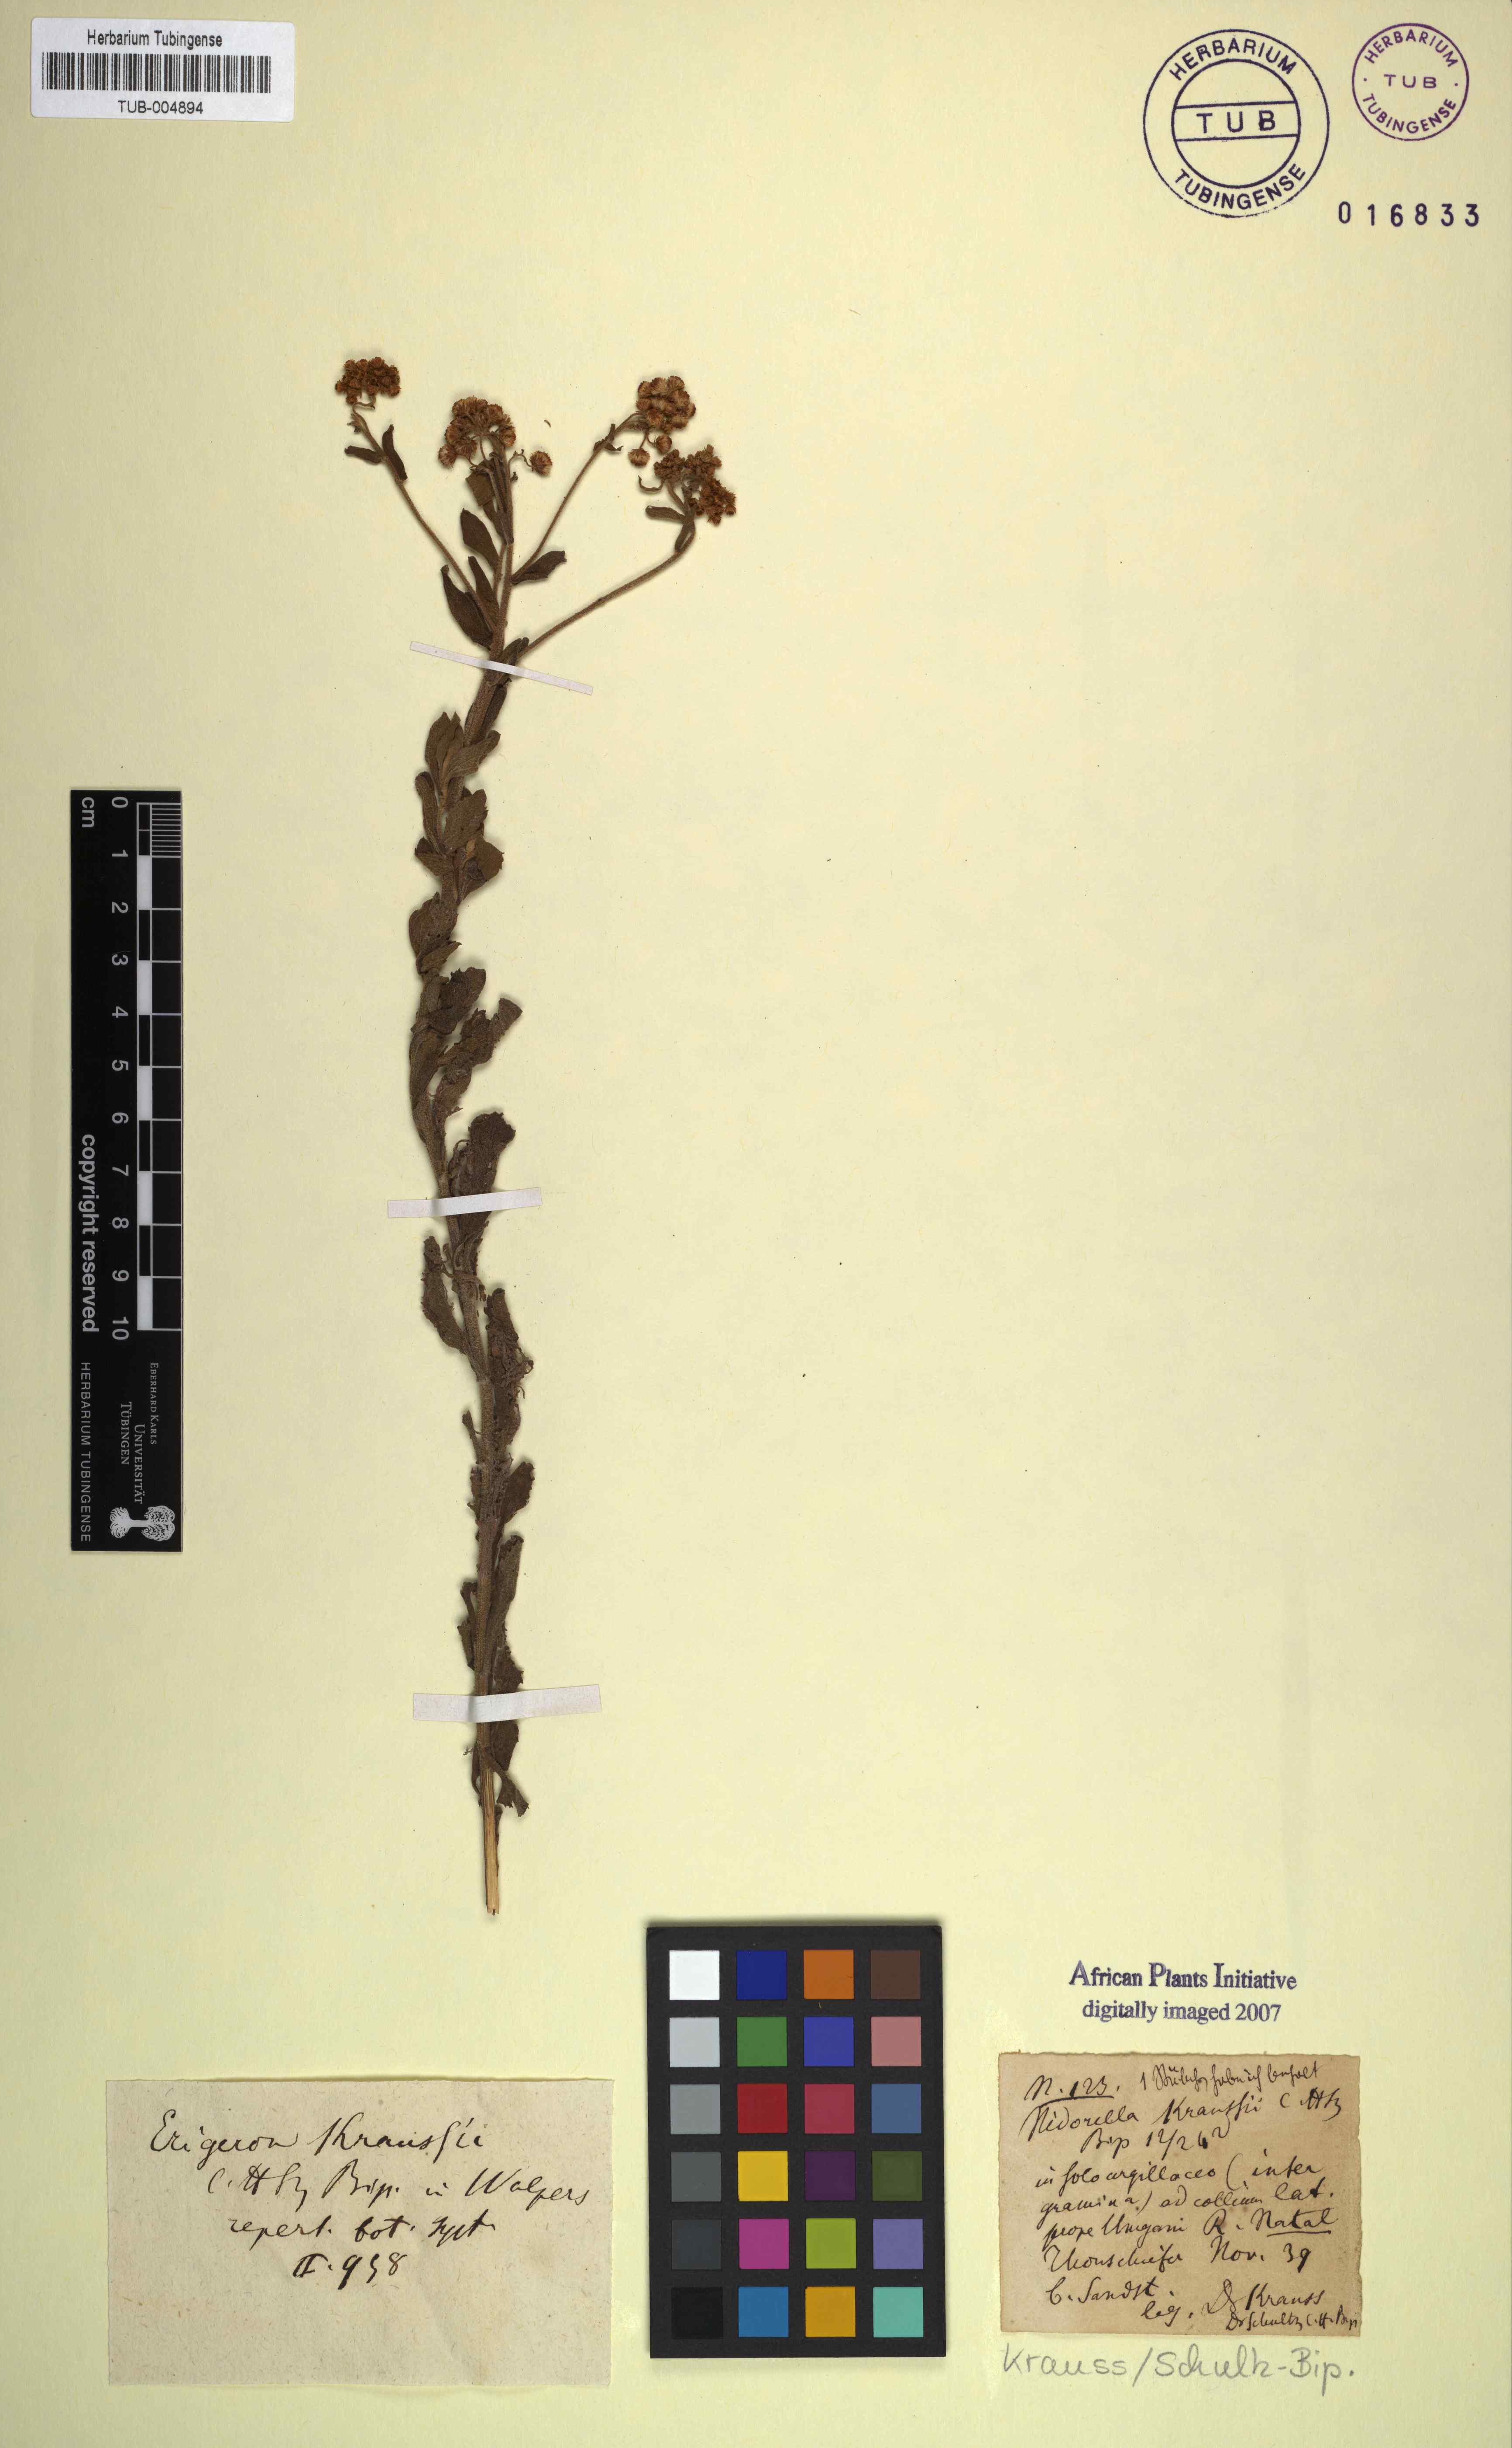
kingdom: Plantae
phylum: Tracheophyta
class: Magnoliopsida
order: Asterales
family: Asteraceae
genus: Nidorella
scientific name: Nidorella auriculata
